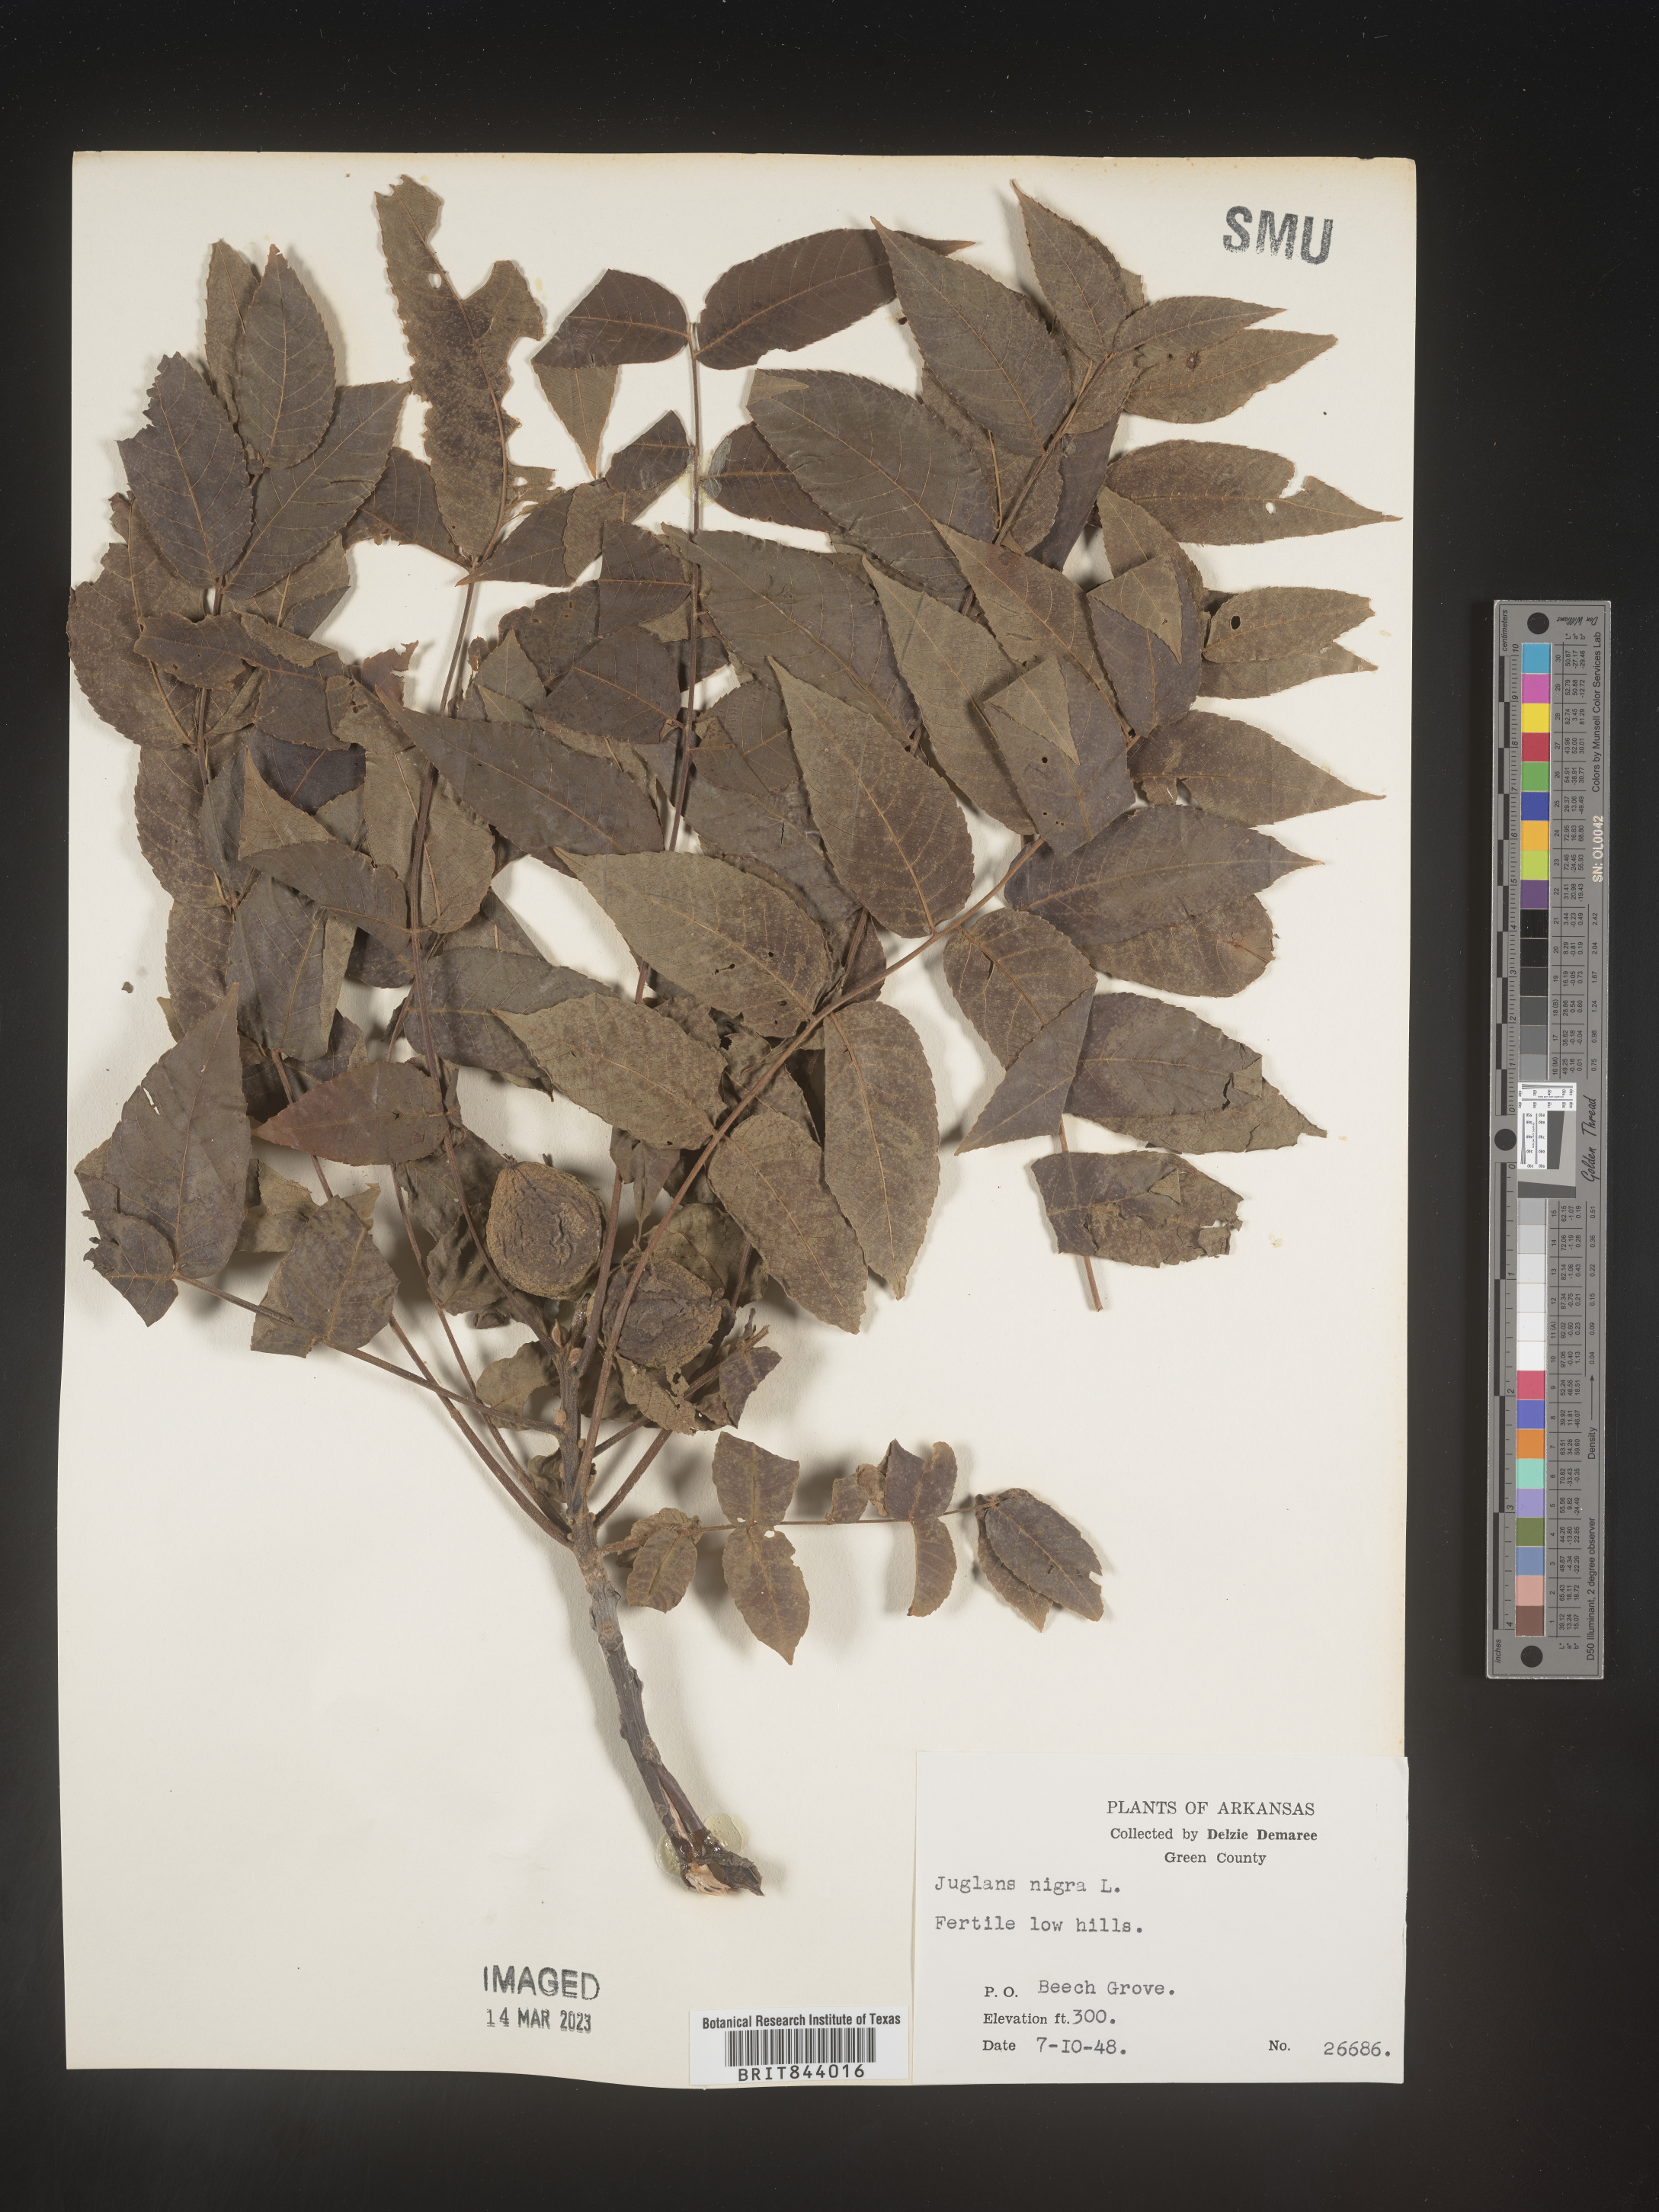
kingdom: Plantae
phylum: Tracheophyta
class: Magnoliopsida
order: Fagales
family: Juglandaceae
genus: Juglans
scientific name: Juglans nigra
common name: Black walnut
